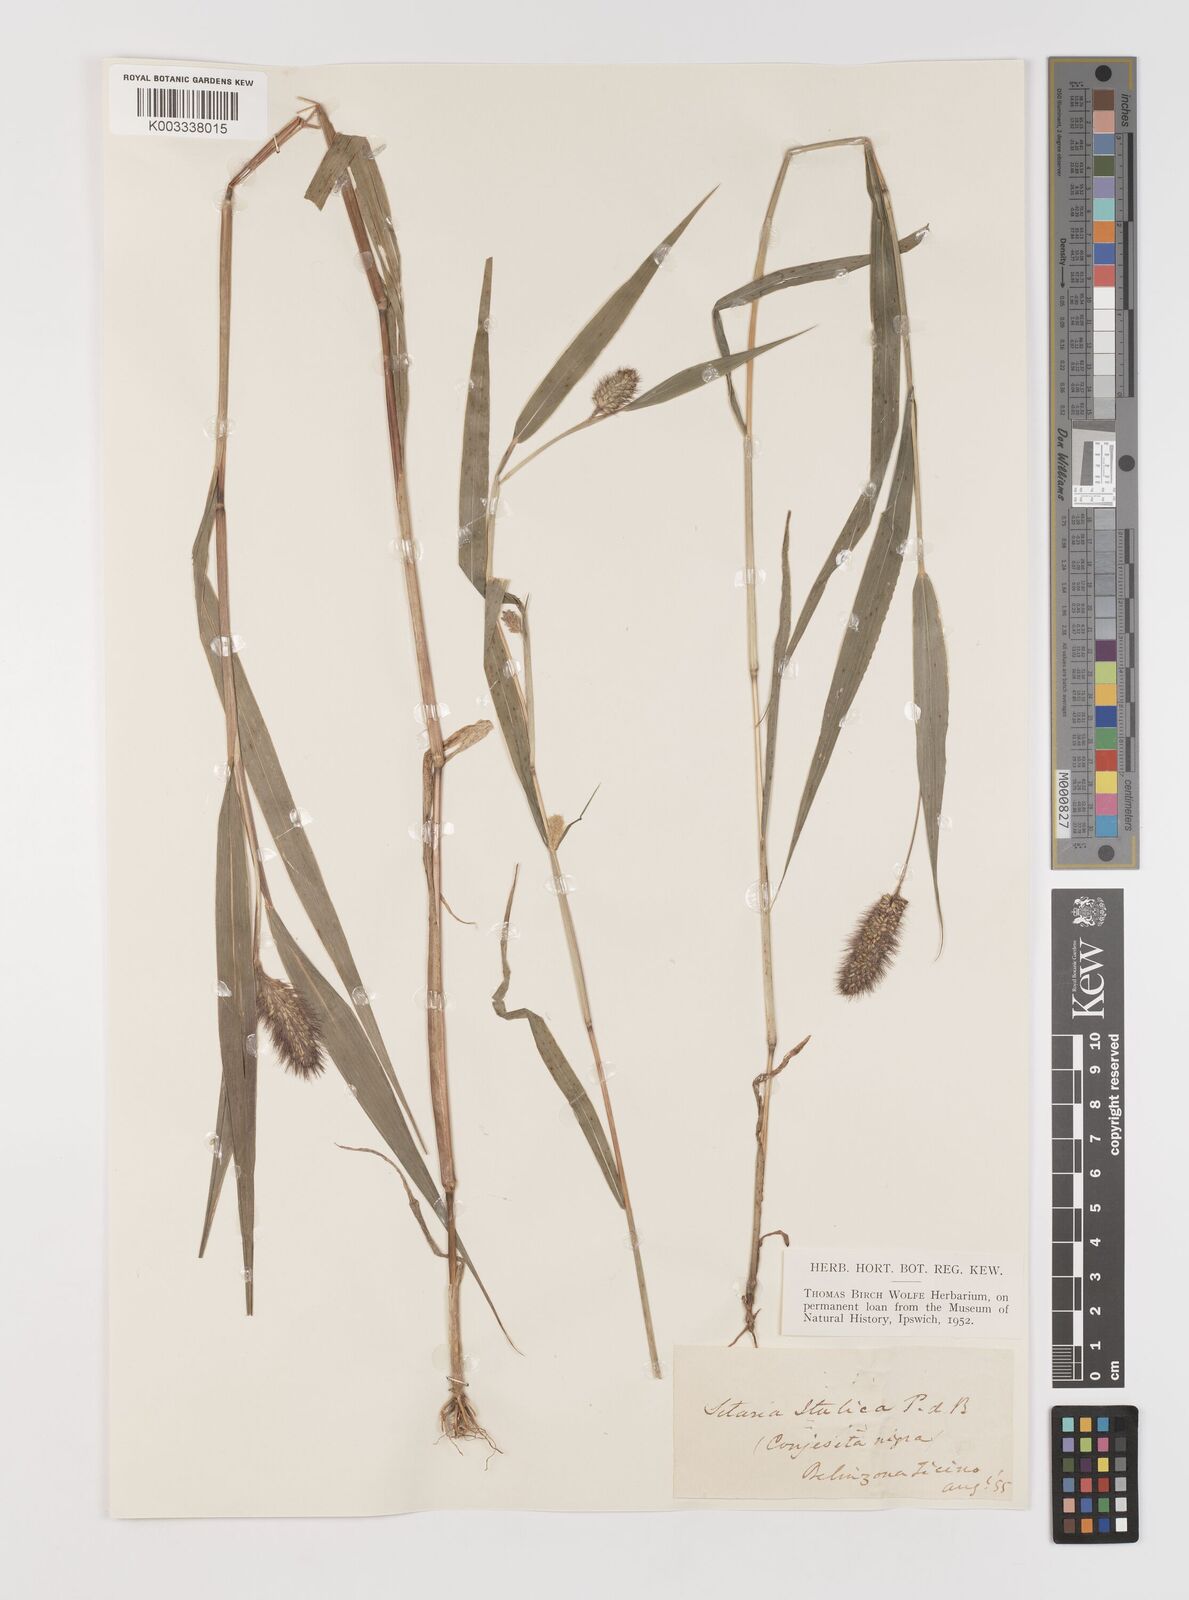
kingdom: Plantae
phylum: Tracheophyta
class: Liliopsida
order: Poales
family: Poaceae
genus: Setaria
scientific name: Setaria italica
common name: Foxtail bristle-grass
